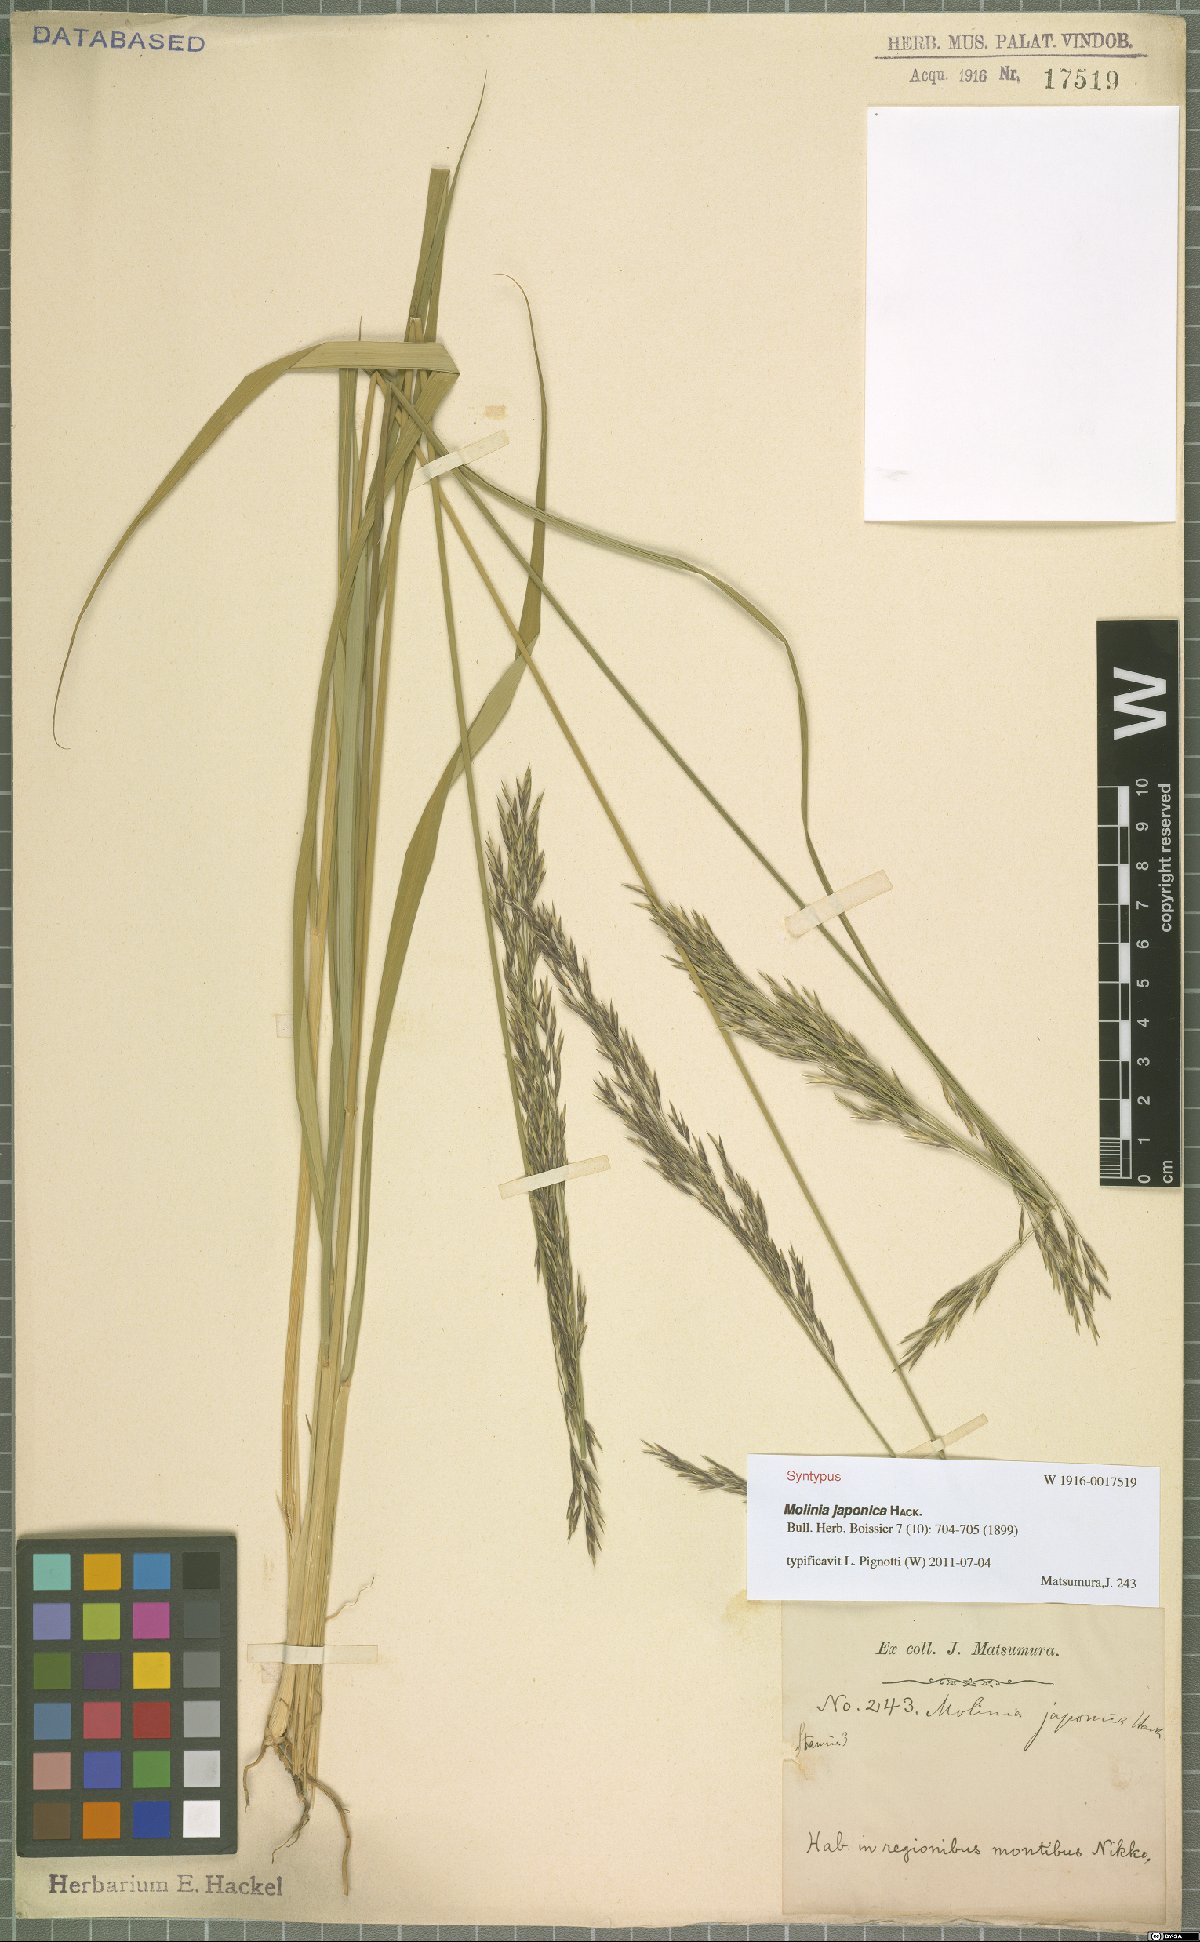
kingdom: Plantae
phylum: Tracheophyta
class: Liliopsida
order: Poales
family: Poaceae
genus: Moliniopsis
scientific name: Moliniopsis japonica
